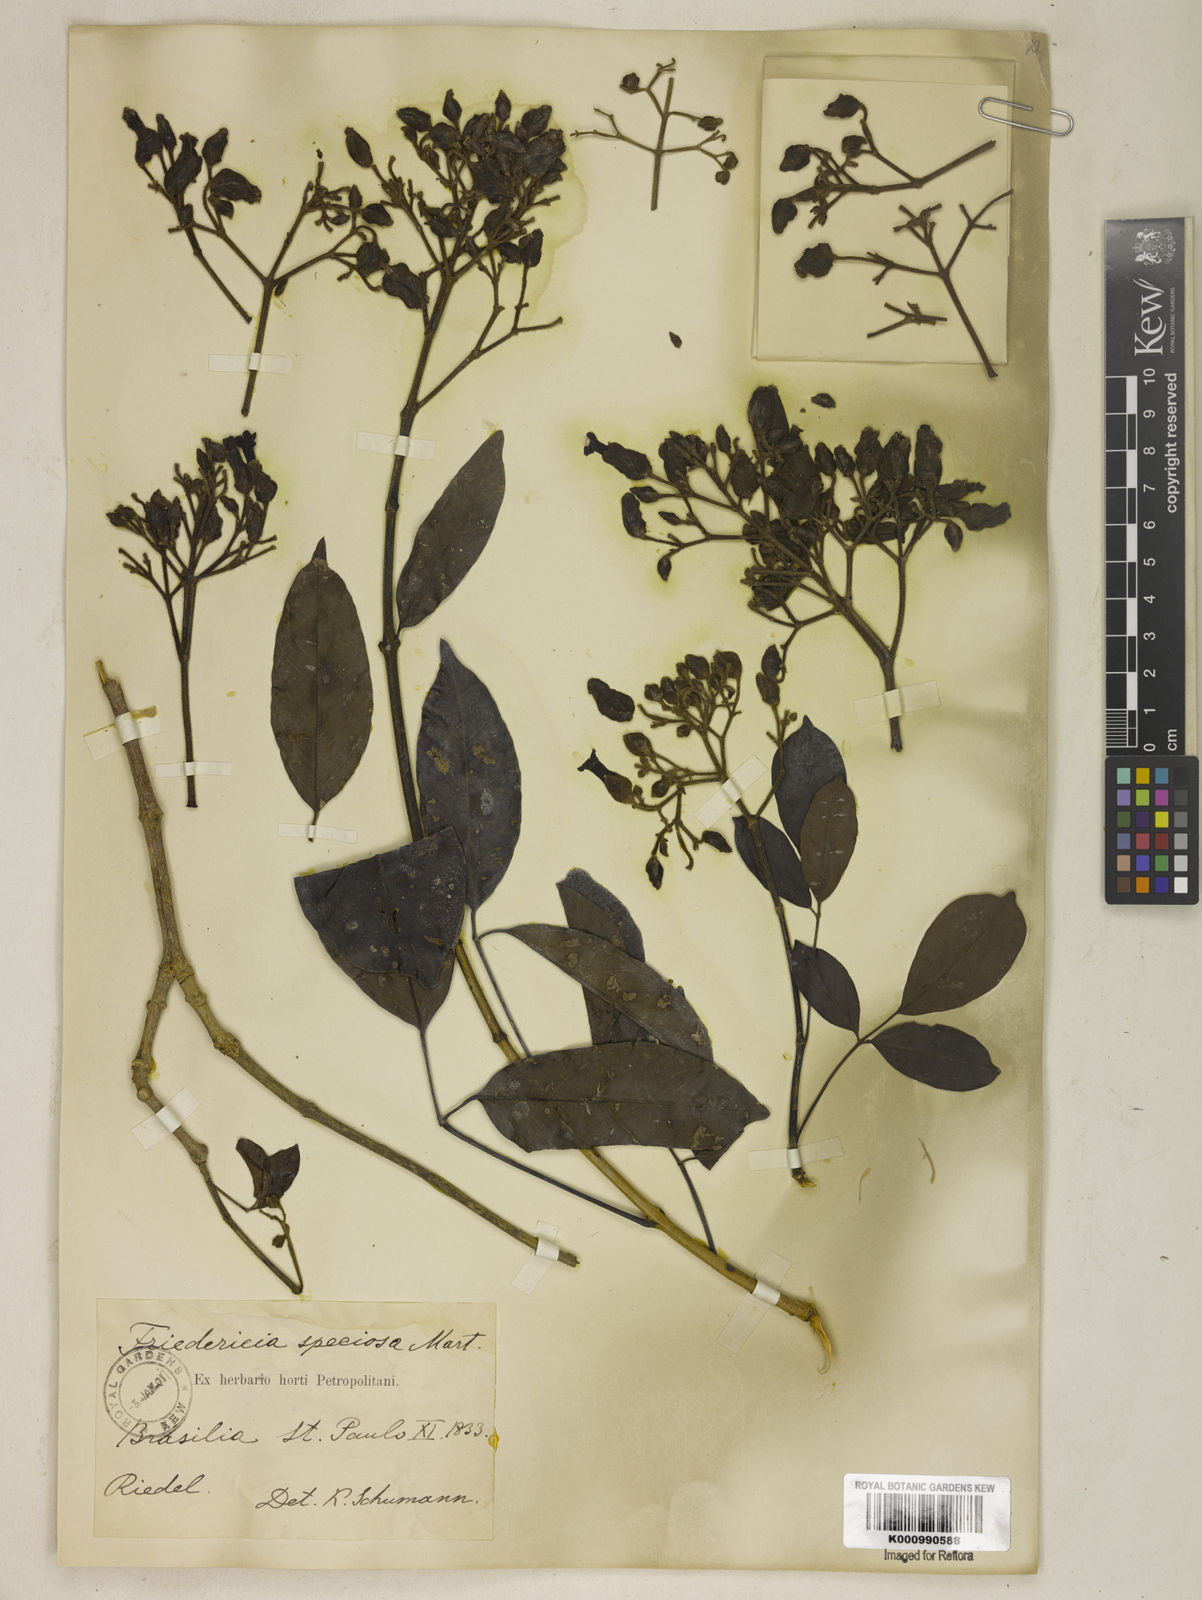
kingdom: Plantae
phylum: Tracheophyta
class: Magnoliopsida
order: Lamiales
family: Bignoniaceae
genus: Fridericia
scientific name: Fridericia speciosa
